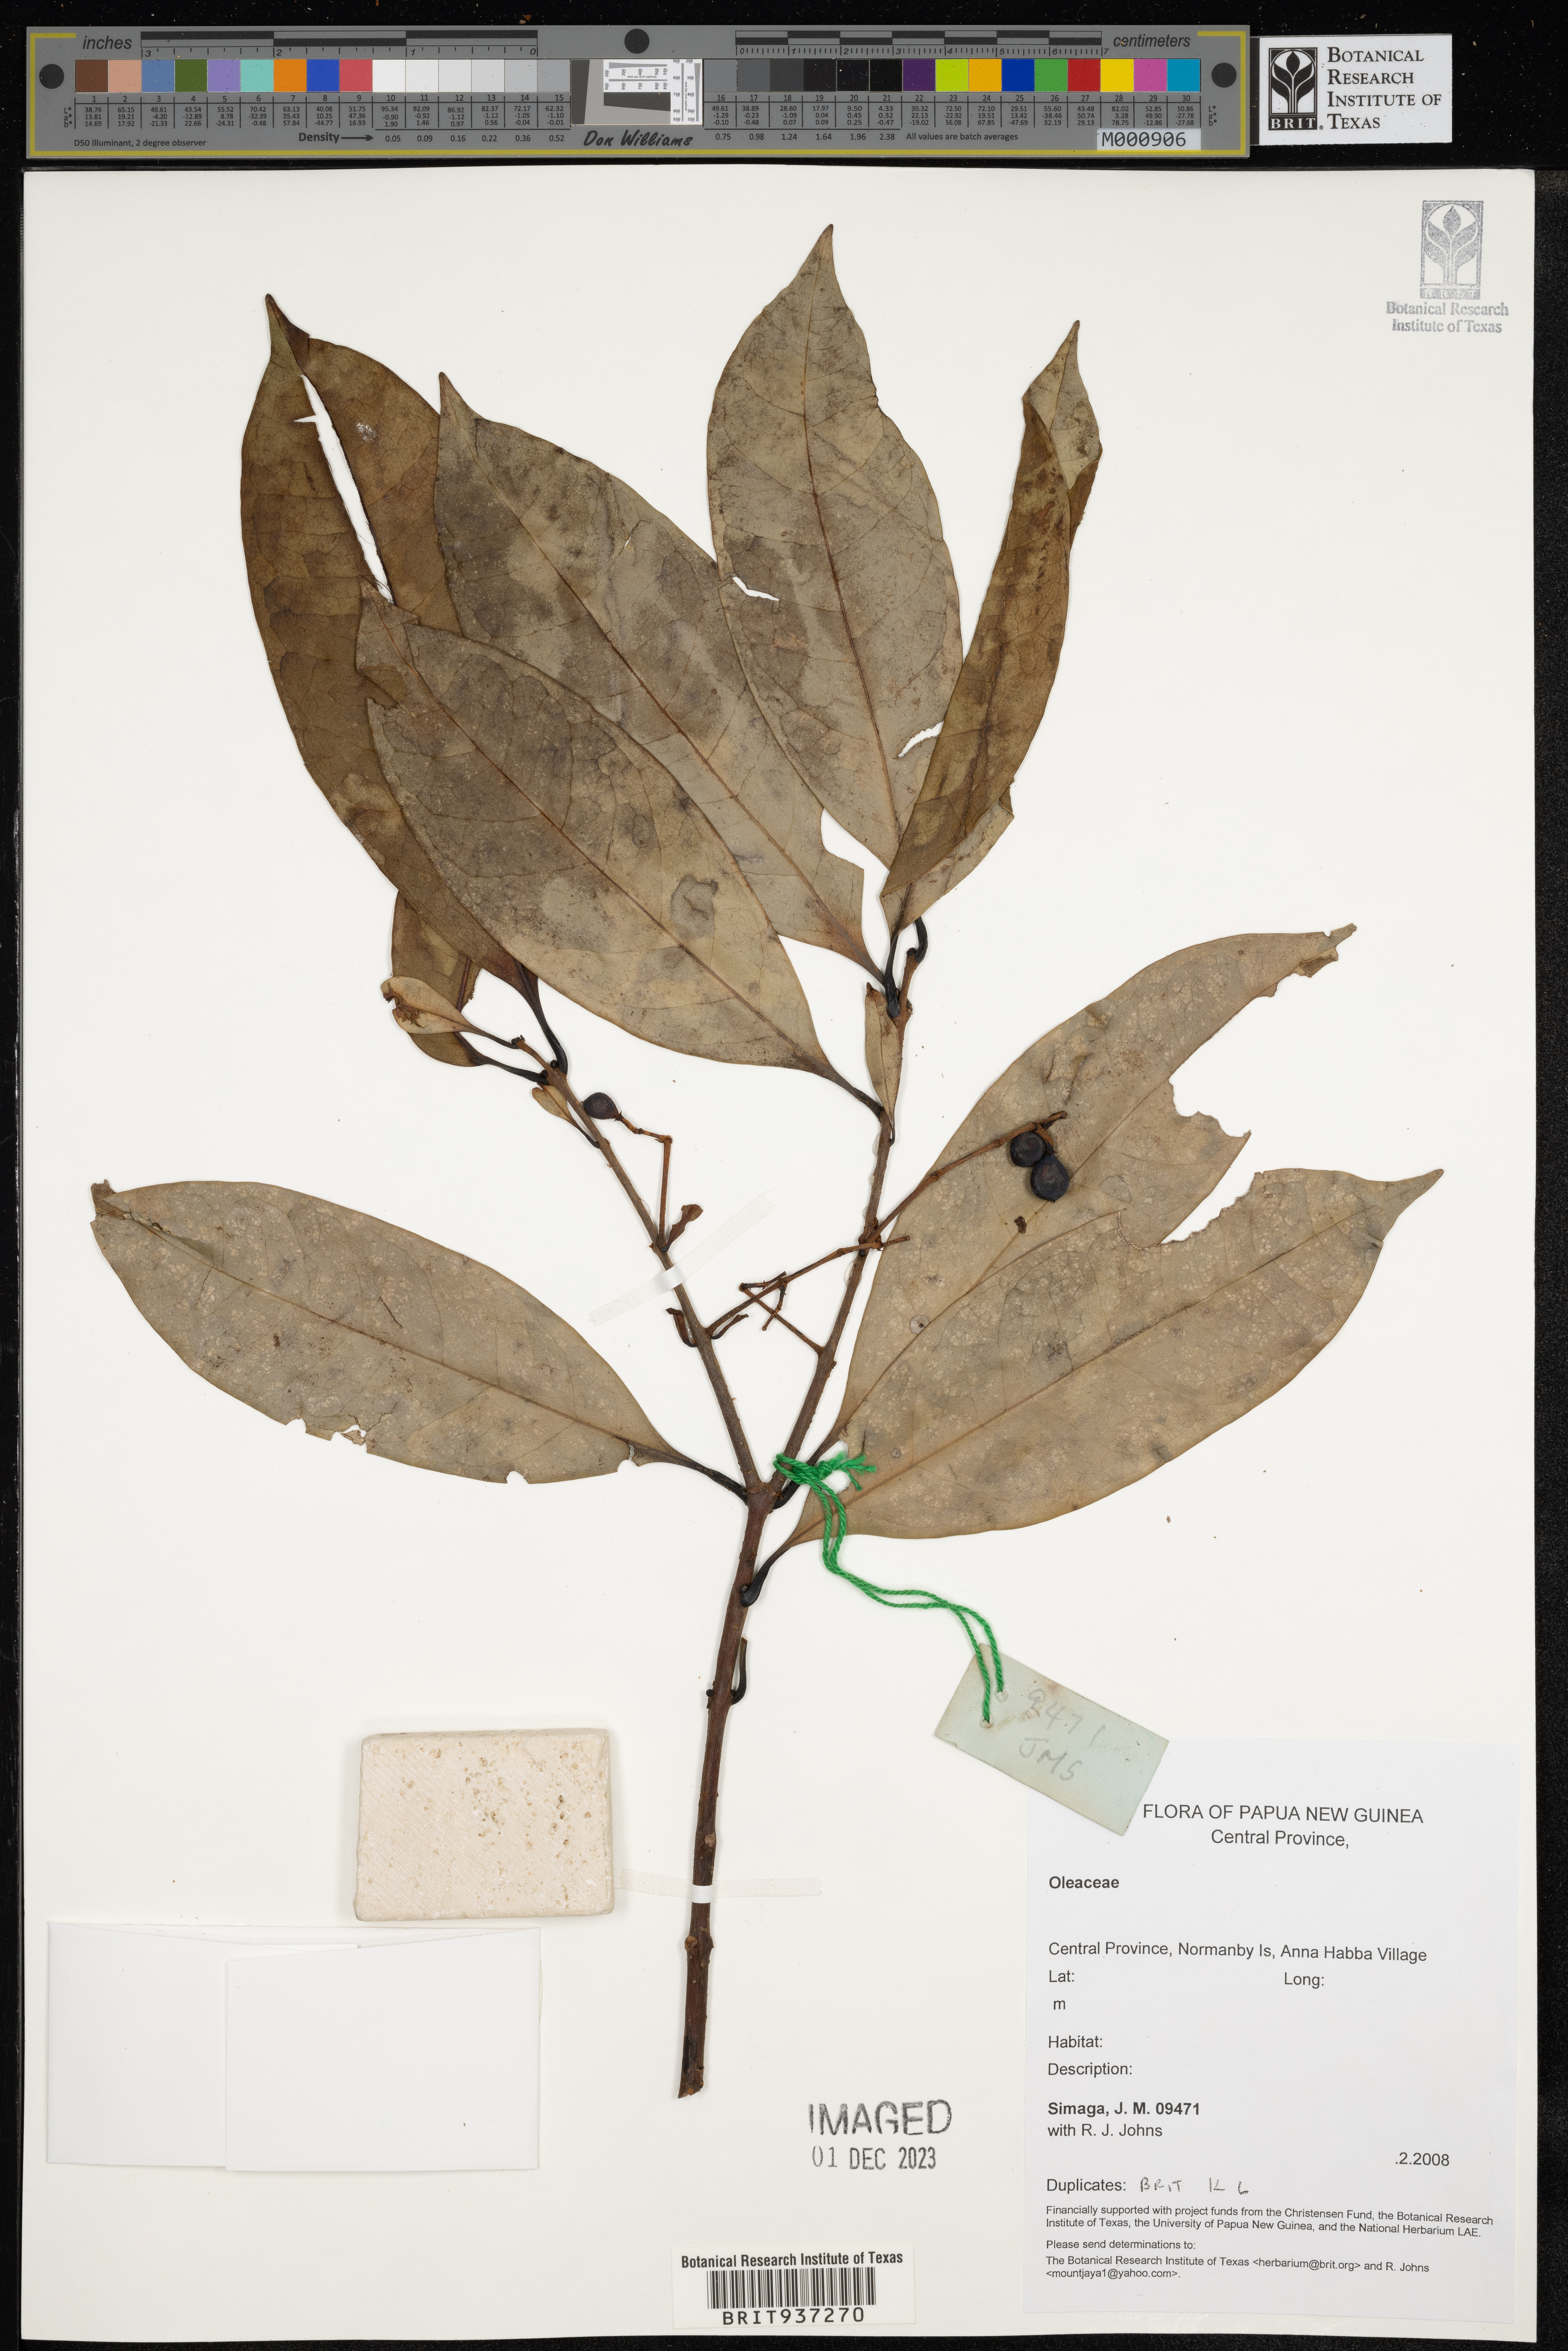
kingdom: Plantae
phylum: Tracheophyta
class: Magnoliopsida
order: Lamiales
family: Oleaceae
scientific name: Oleaceae
